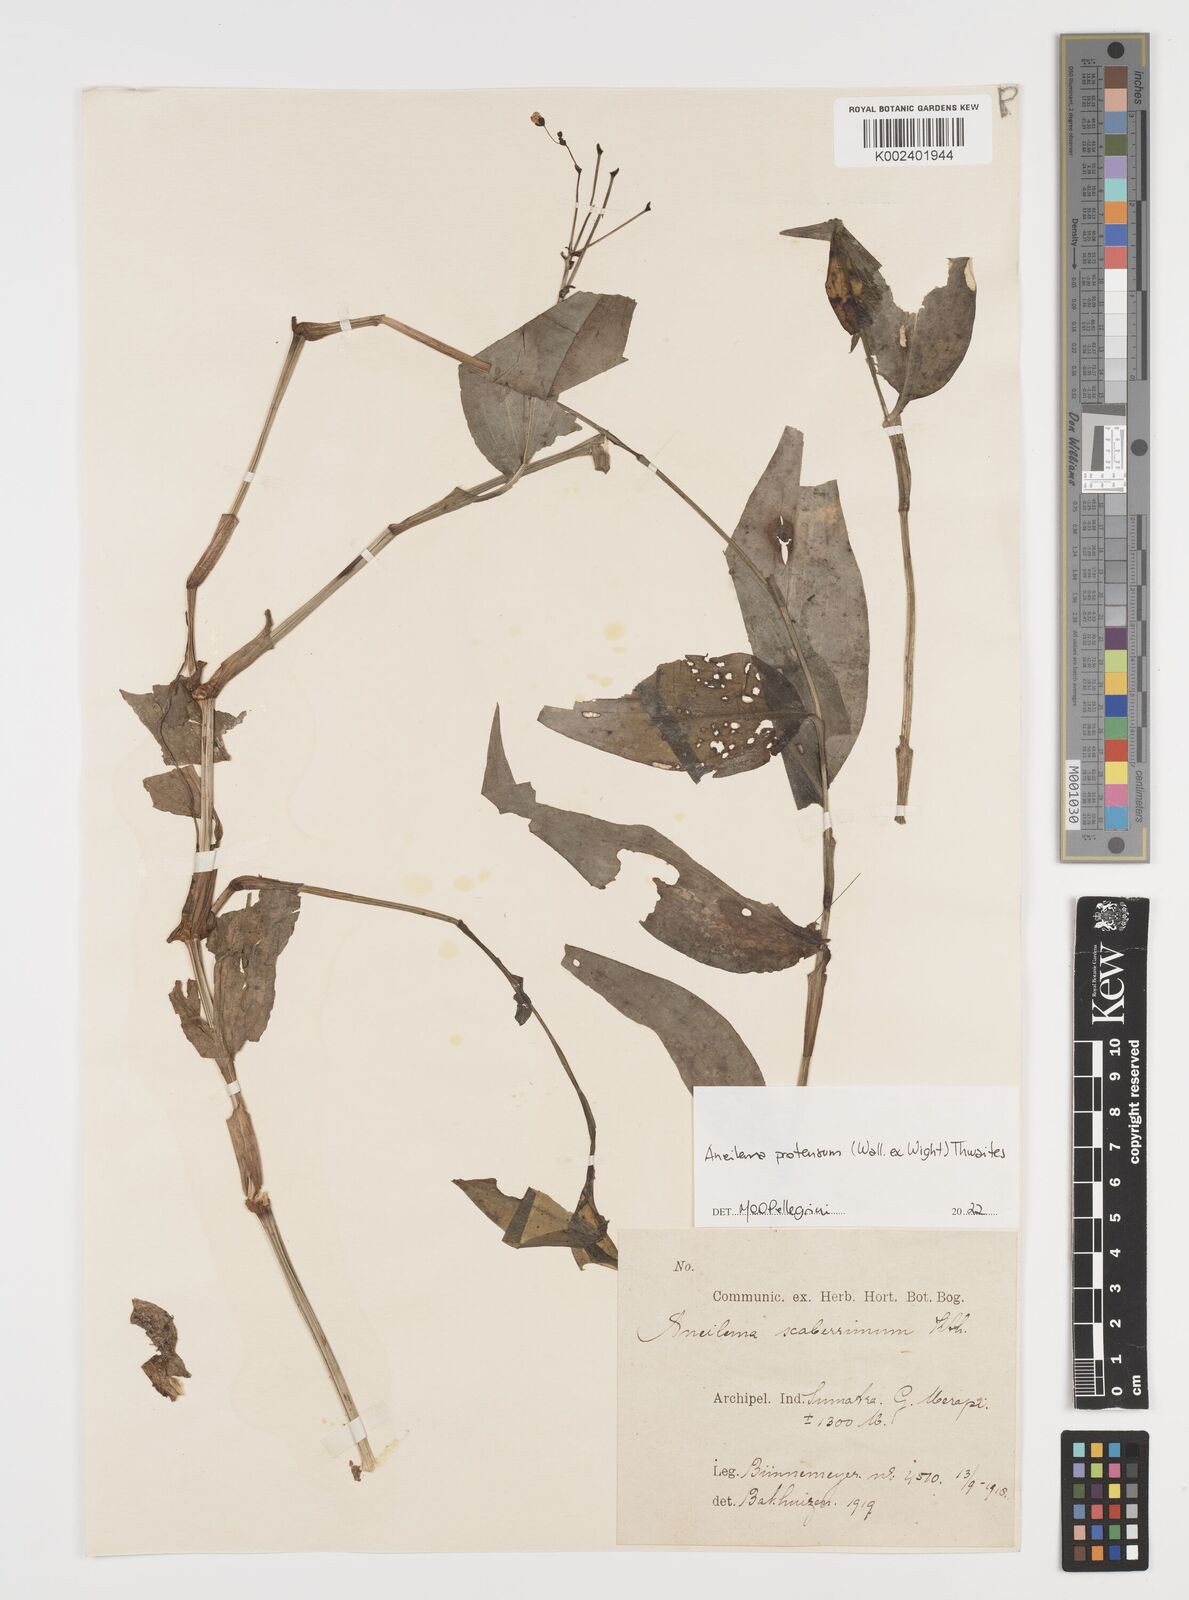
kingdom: Plantae
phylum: Tracheophyta
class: Liliopsida
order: Commelinales
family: Commelinaceae
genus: Rhopalephora
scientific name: Rhopalephora
